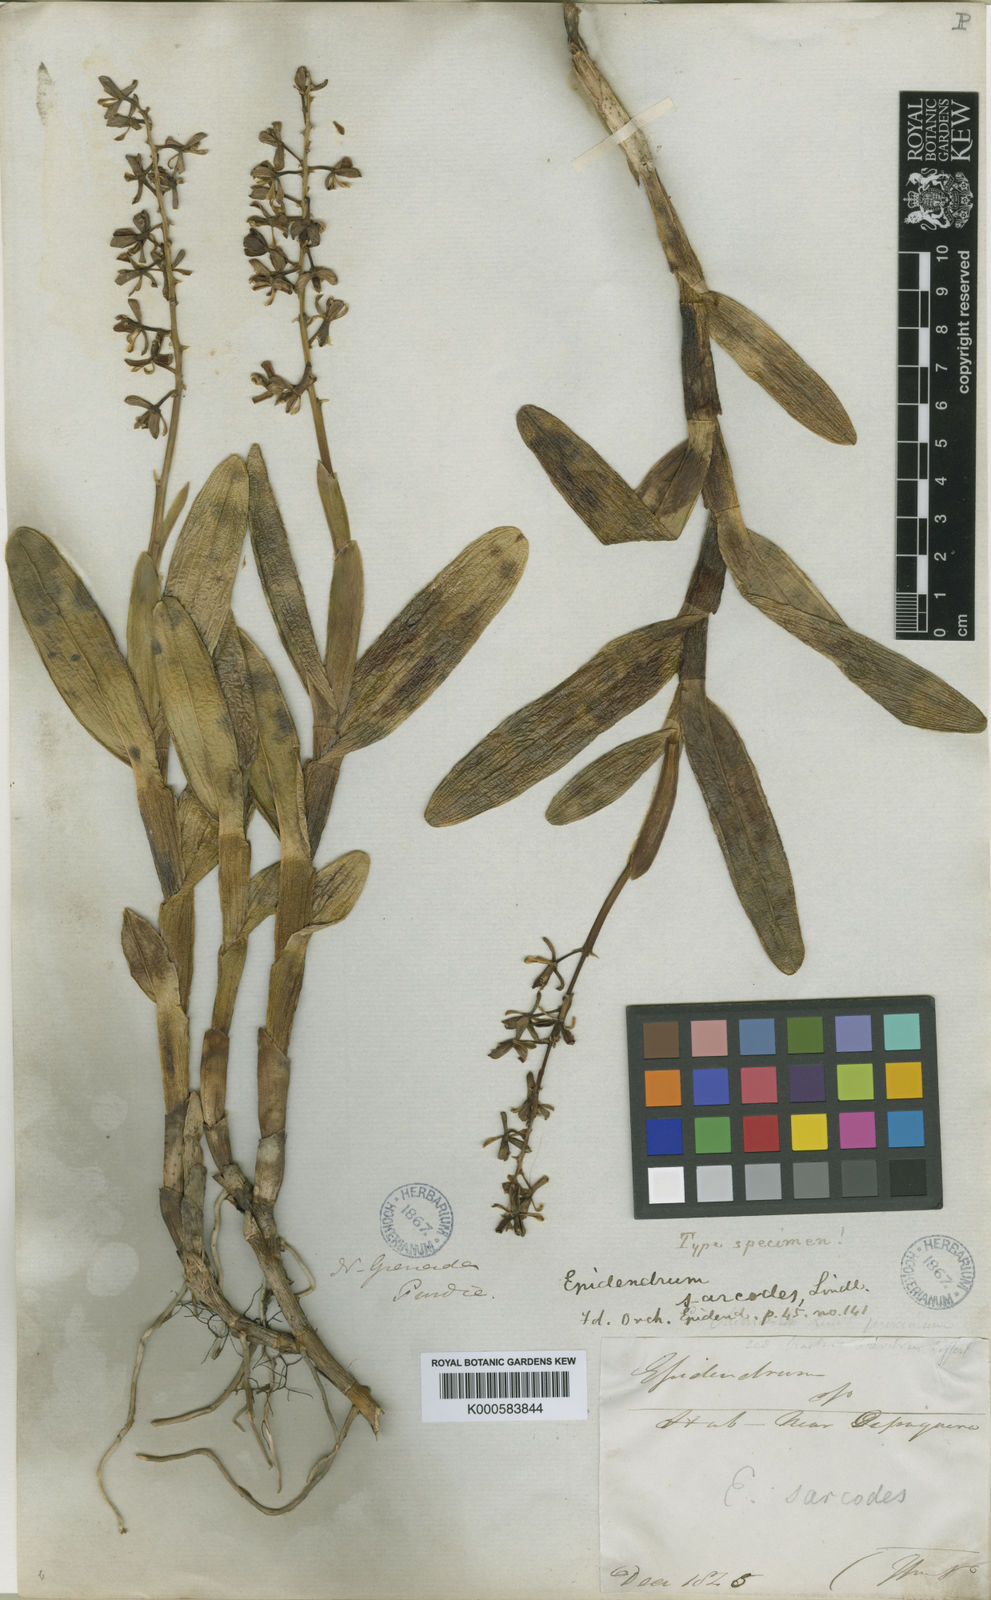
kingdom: Plantae
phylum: Tracheophyta
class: Liliopsida
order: Asparagales
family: Orchidaceae
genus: Epidendrum
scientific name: Epidendrum sarcodes
